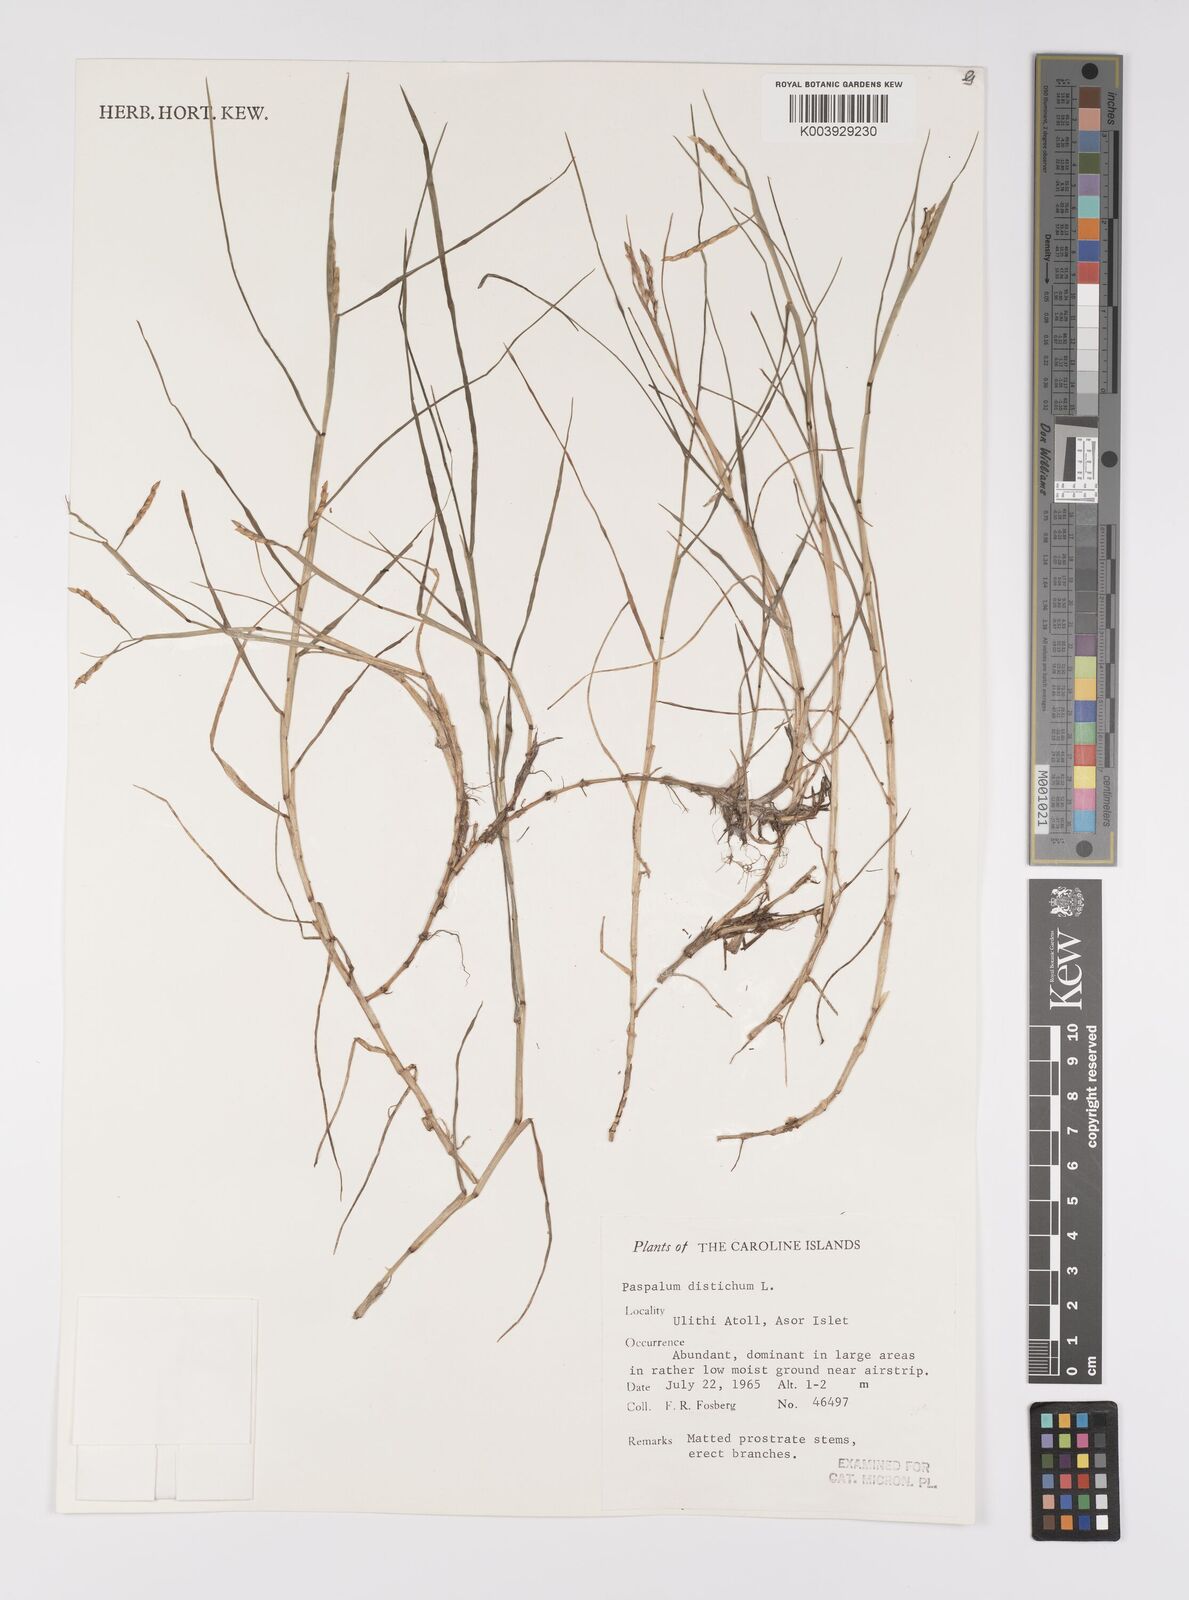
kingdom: Plantae
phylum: Tracheophyta
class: Liliopsida
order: Poales
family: Poaceae
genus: Paspalum
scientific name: Paspalum vaginatum
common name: Seashore paspalum
